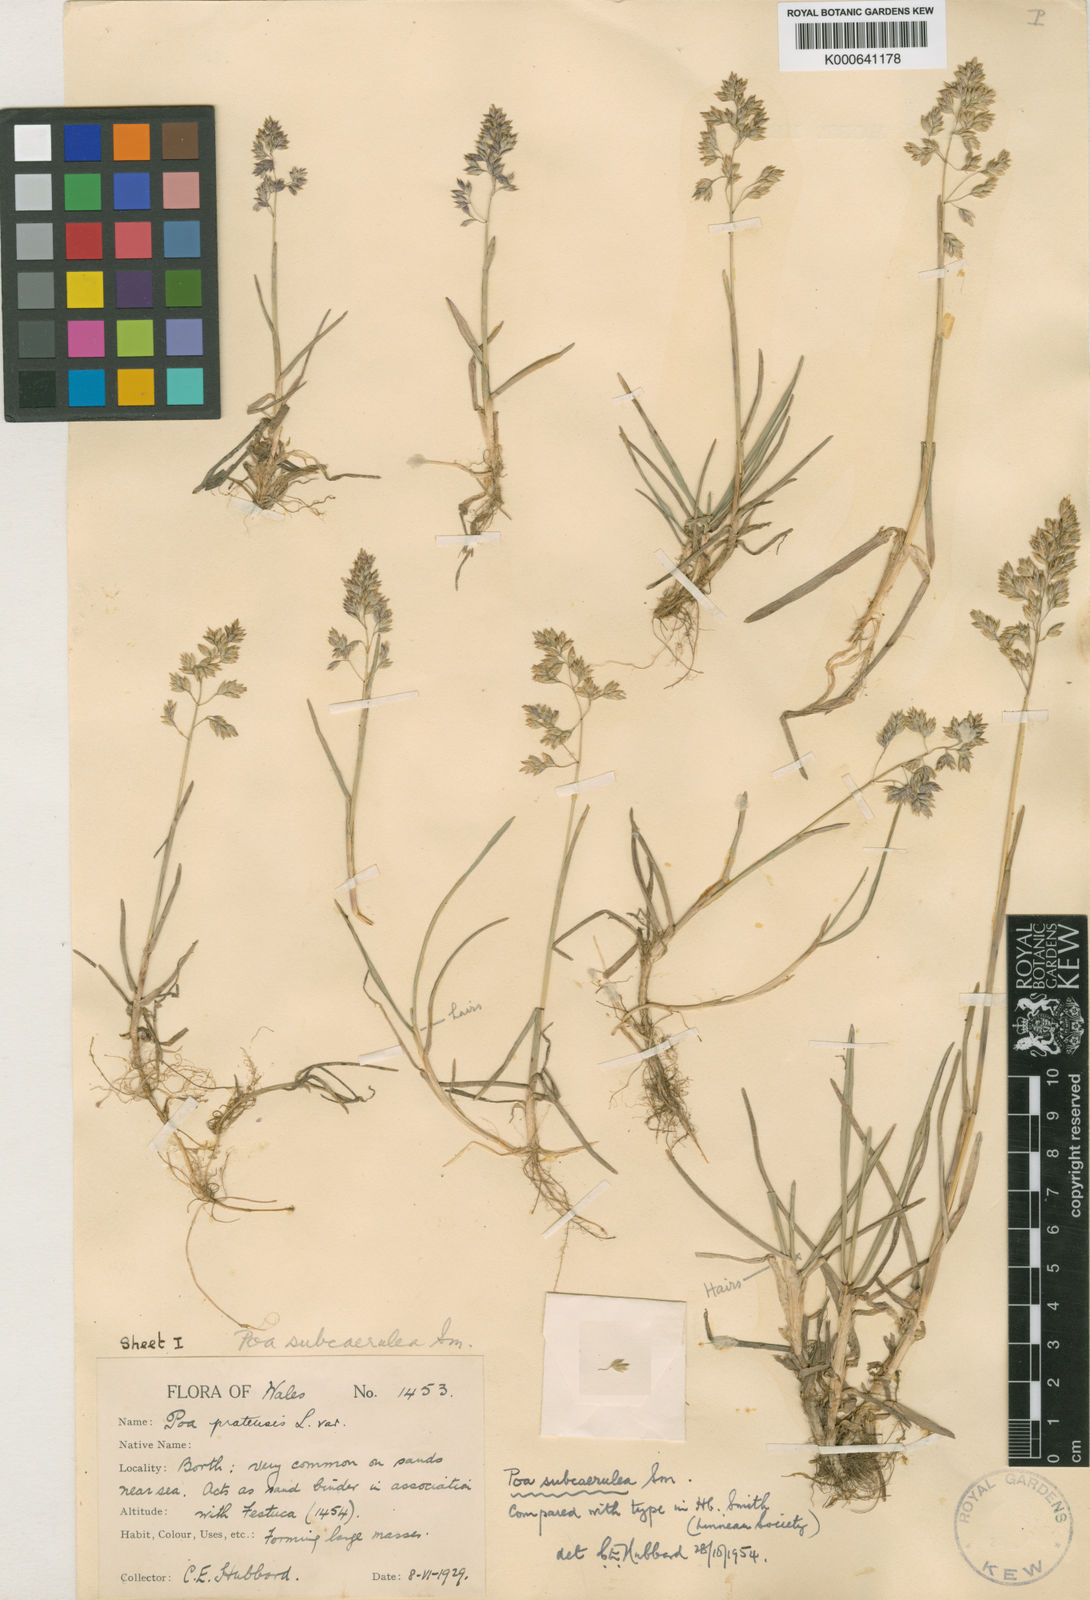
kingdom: Plantae
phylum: Tracheophyta
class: Liliopsida
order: Poales
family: Poaceae
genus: Poa
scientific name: Poa angustifolia
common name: Narrow-leaved meadow-grass
